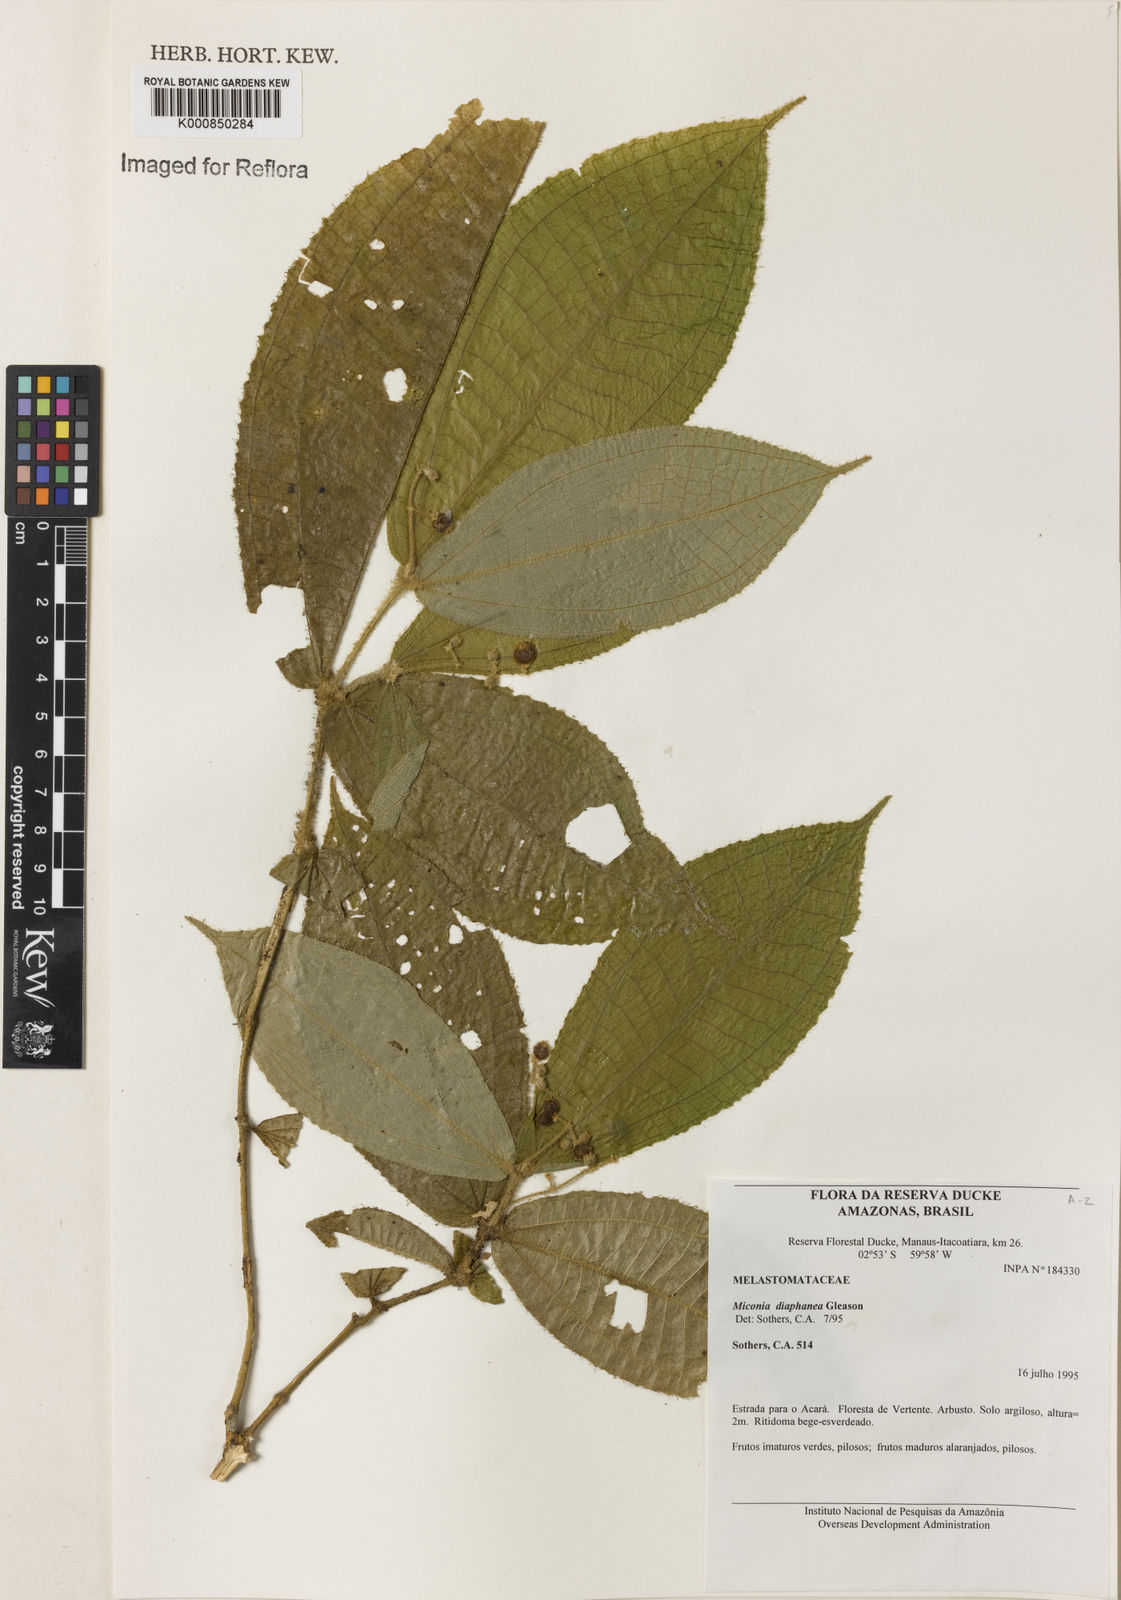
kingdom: Plantae
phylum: Tracheophyta
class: Magnoliopsida
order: Myrtales
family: Melastomataceae
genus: Miconia
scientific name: Miconia diaphanea
